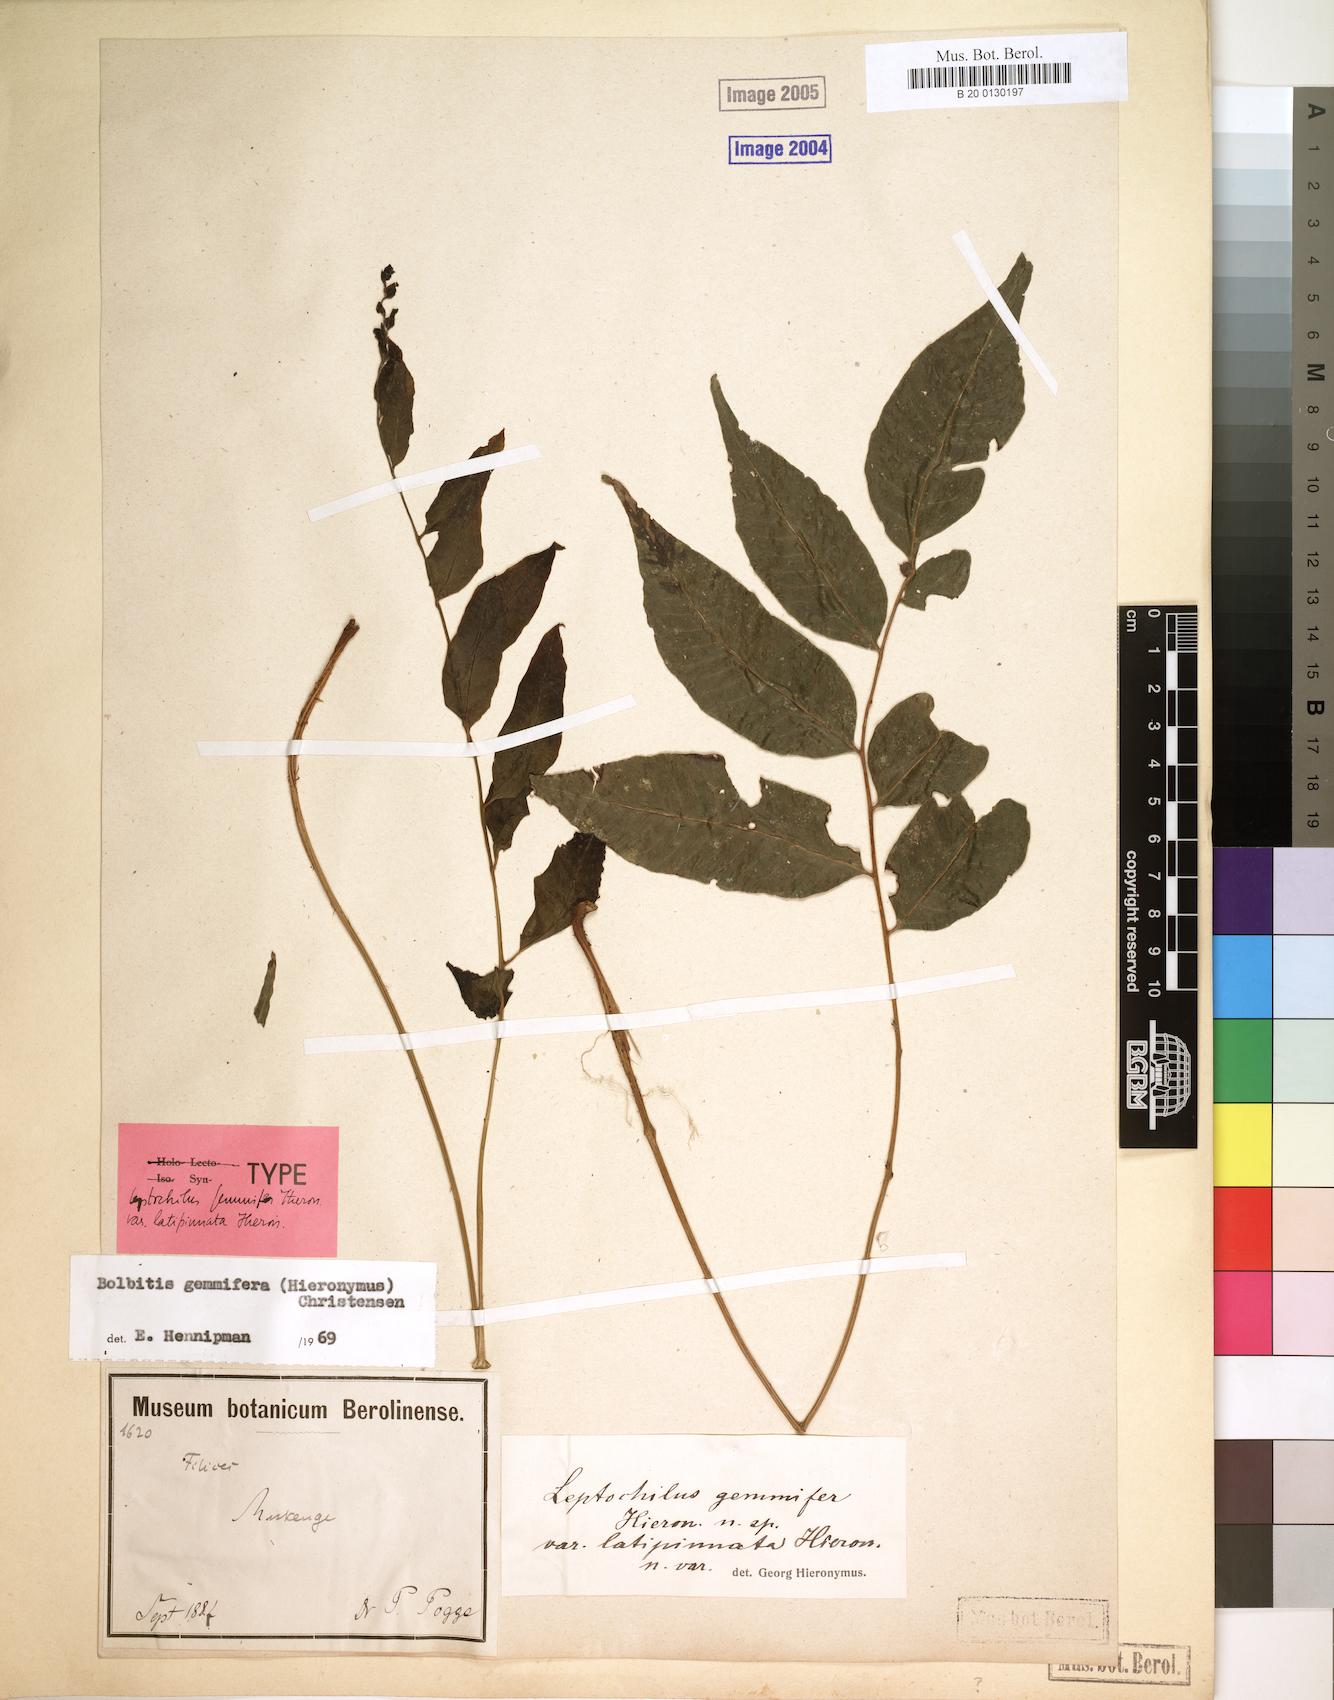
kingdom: Plantae
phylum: Tracheophyta
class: Polypodiopsida
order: Polypodiales
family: Dryopteridaceae
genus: Bolbitis
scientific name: Bolbitis gemmifer
